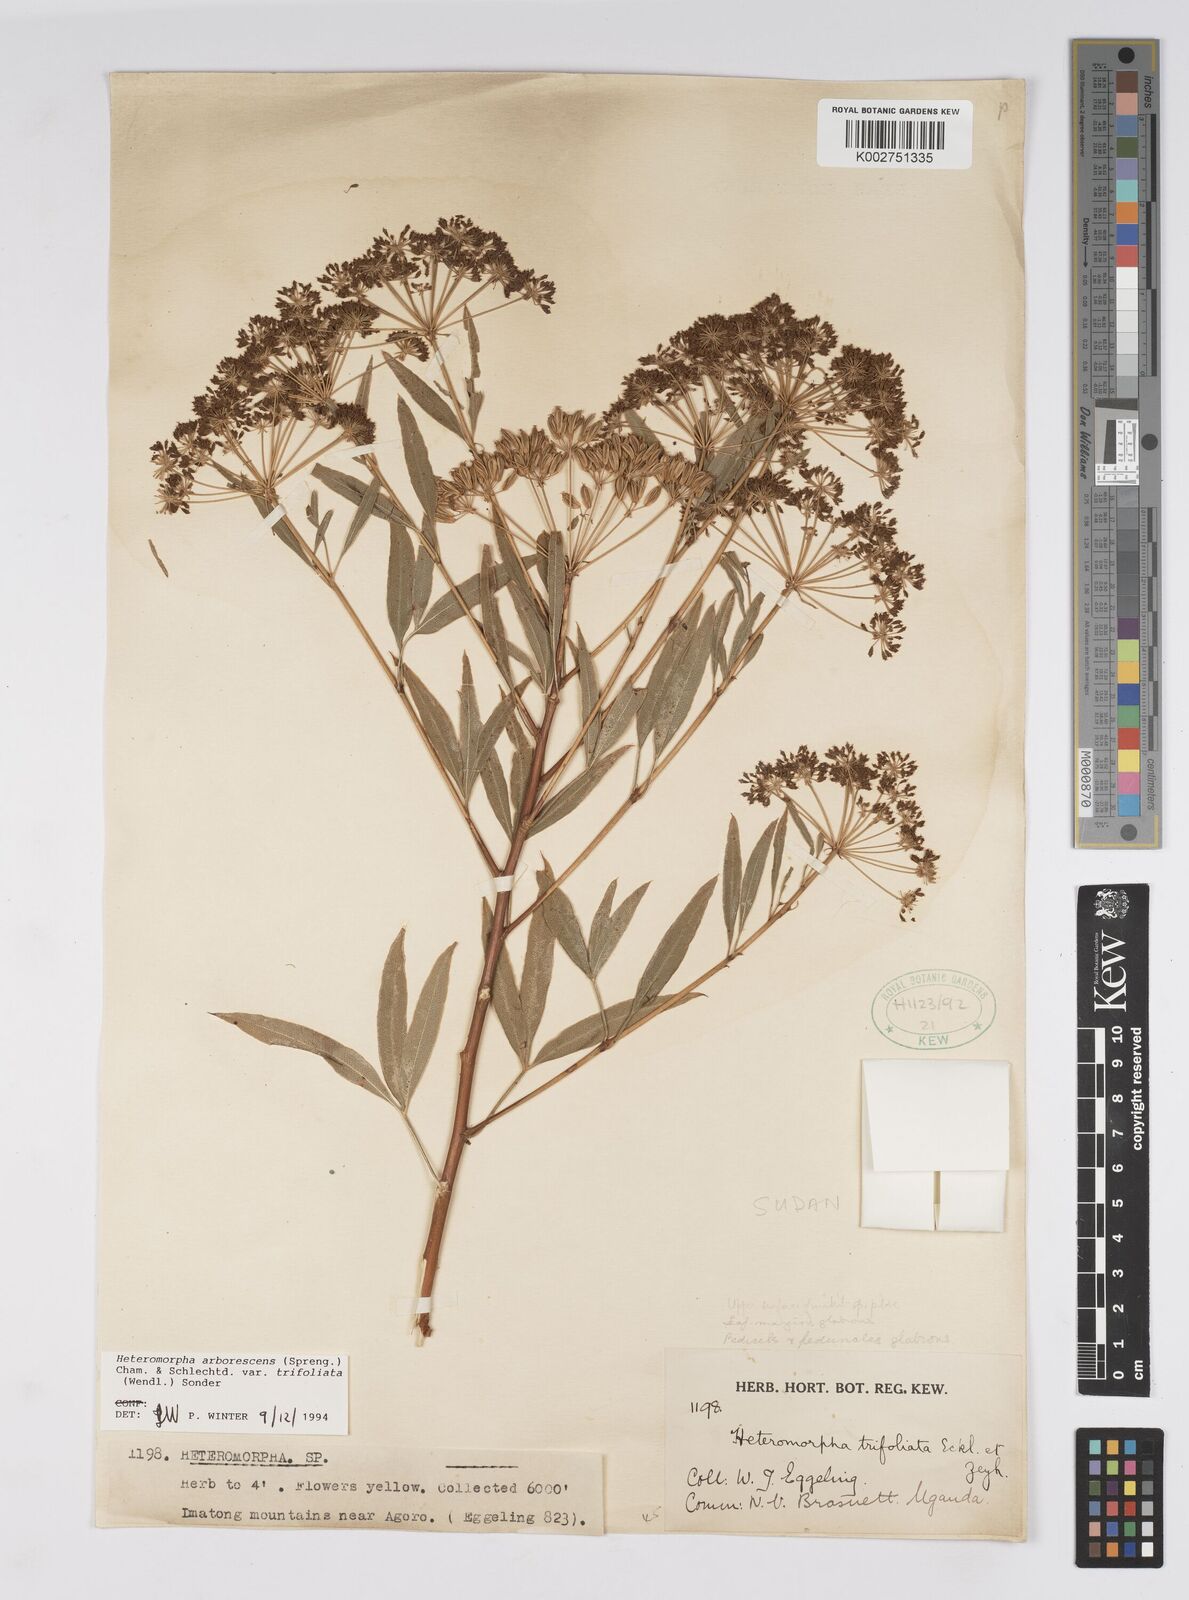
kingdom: Plantae
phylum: Tracheophyta
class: Magnoliopsida
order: Apiales
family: Apiaceae
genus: Heteromorpha
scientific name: Heteromorpha arborescens
